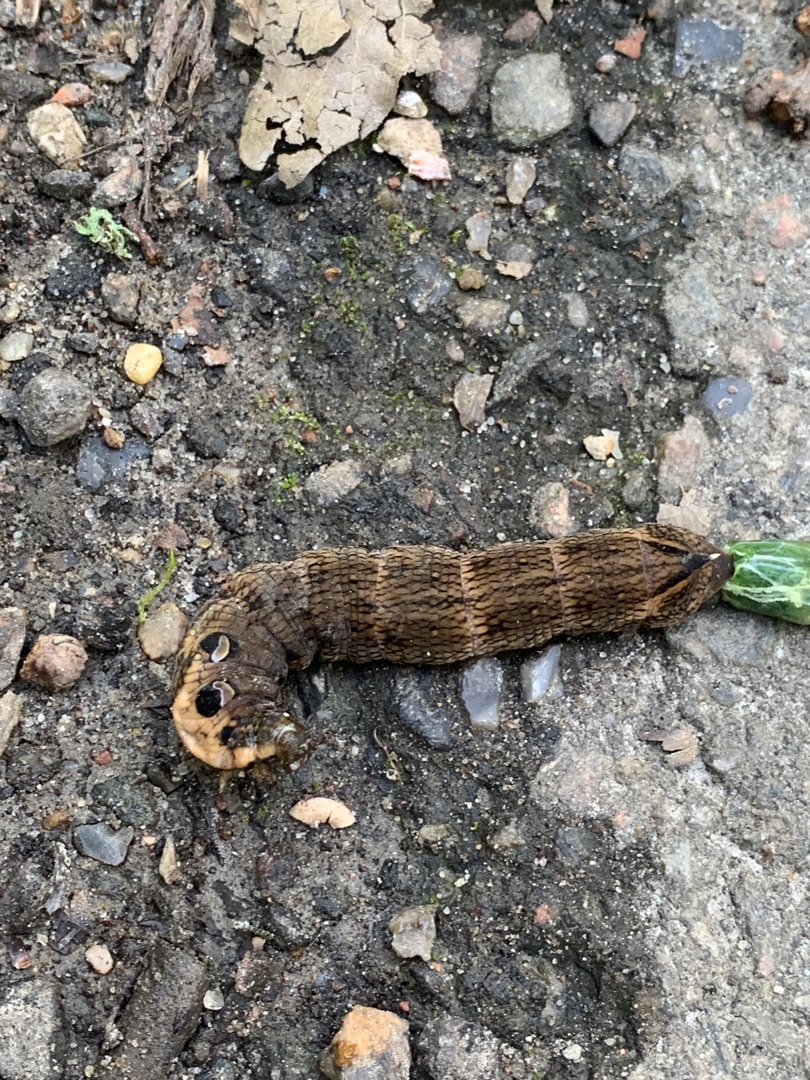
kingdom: Animalia
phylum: Arthropoda
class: Insecta
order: Lepidoptera
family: Sphingidae
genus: Deilephila
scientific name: Deilephila elpenor
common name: Dueurtsværmer
